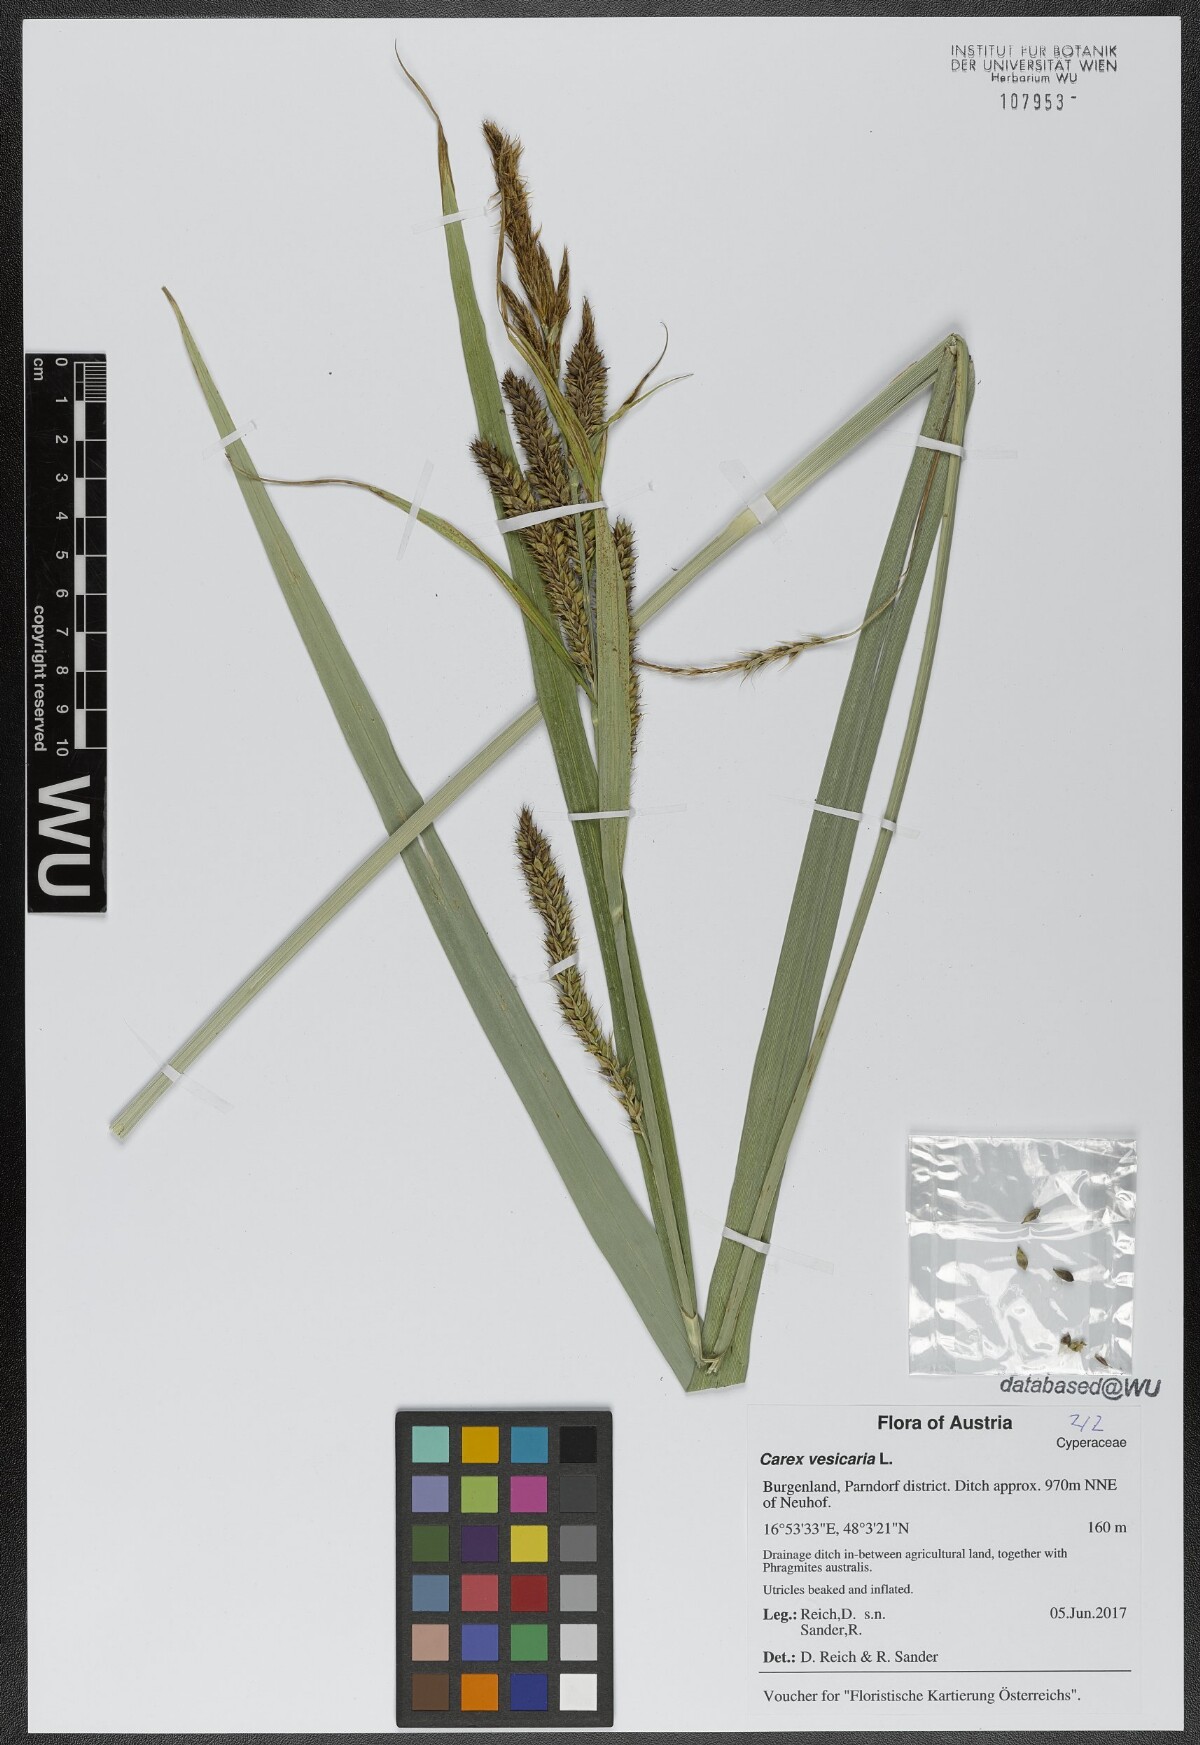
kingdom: Plantae
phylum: Tracheophyta
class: Liliopsida
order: Poales
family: Cyperaceae
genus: Carex
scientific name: Carex vesicaria
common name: Bladder-sedge
